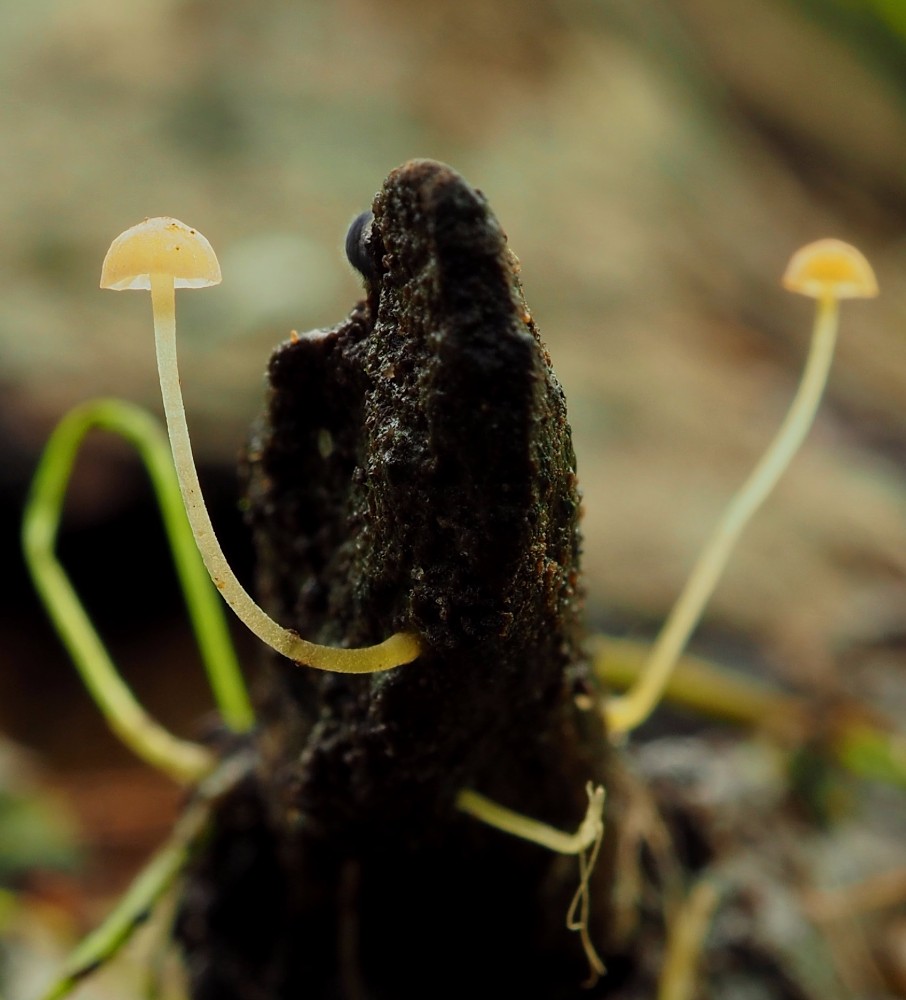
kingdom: Fungi
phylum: Basidiomycota
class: Agaricomycetes
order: Agaricales
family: Mycenaceae
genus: Mycena
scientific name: Mycena acicula
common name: orange huesvamp
